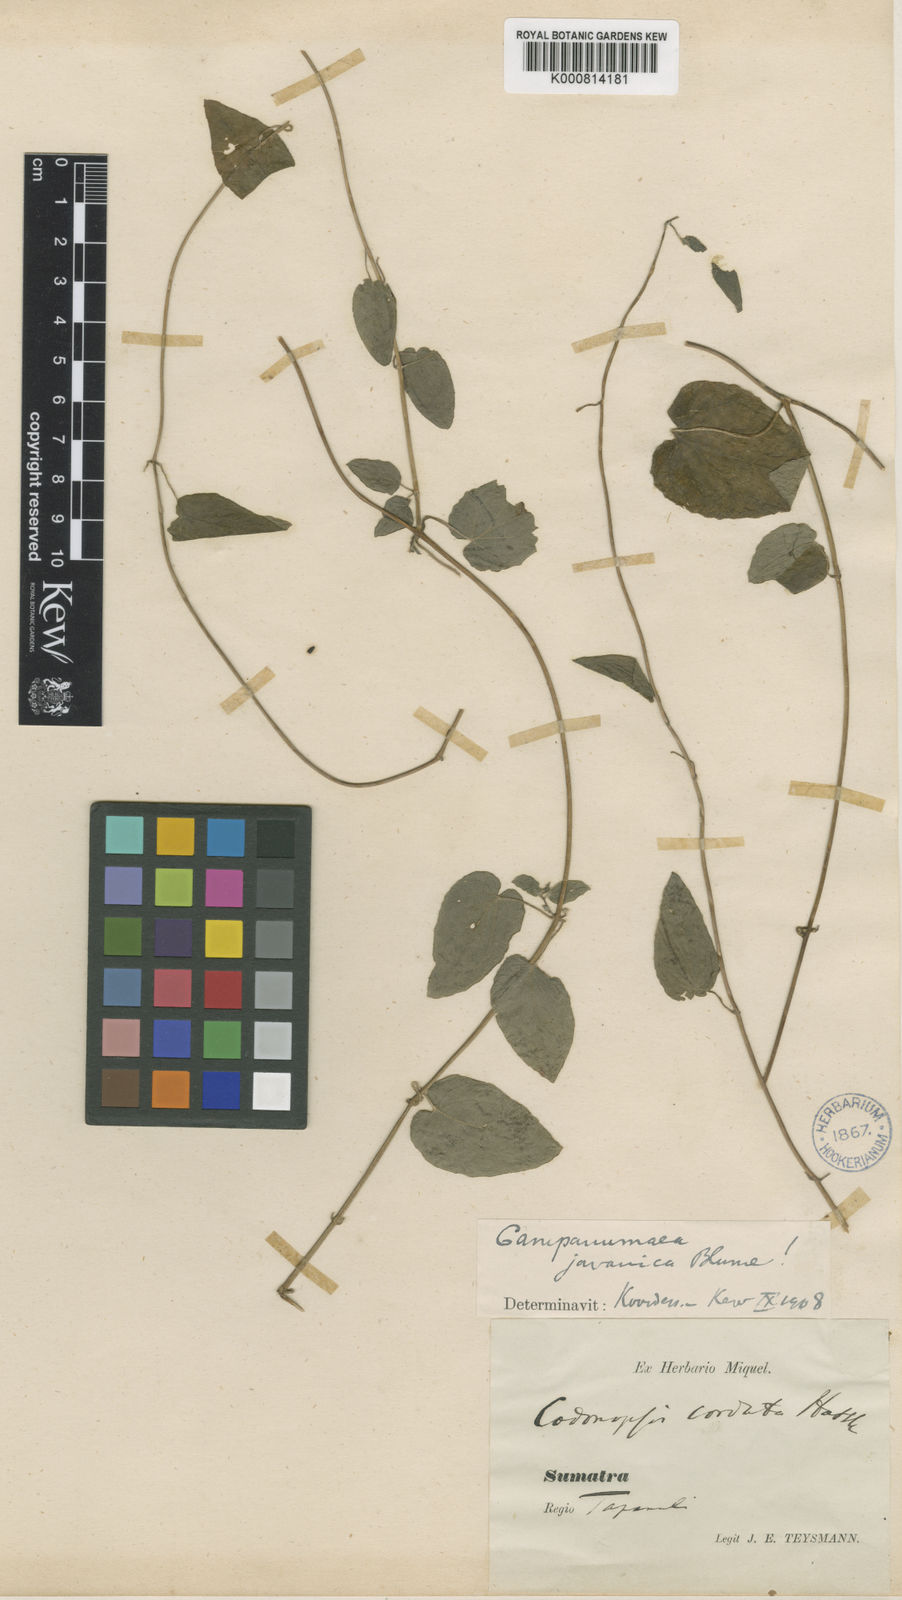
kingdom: Plantae
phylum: Tracheophyta
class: Magnoliopsida
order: Asterales
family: Campanulaceae
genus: Codonopsis
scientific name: Codonopsis javanica
